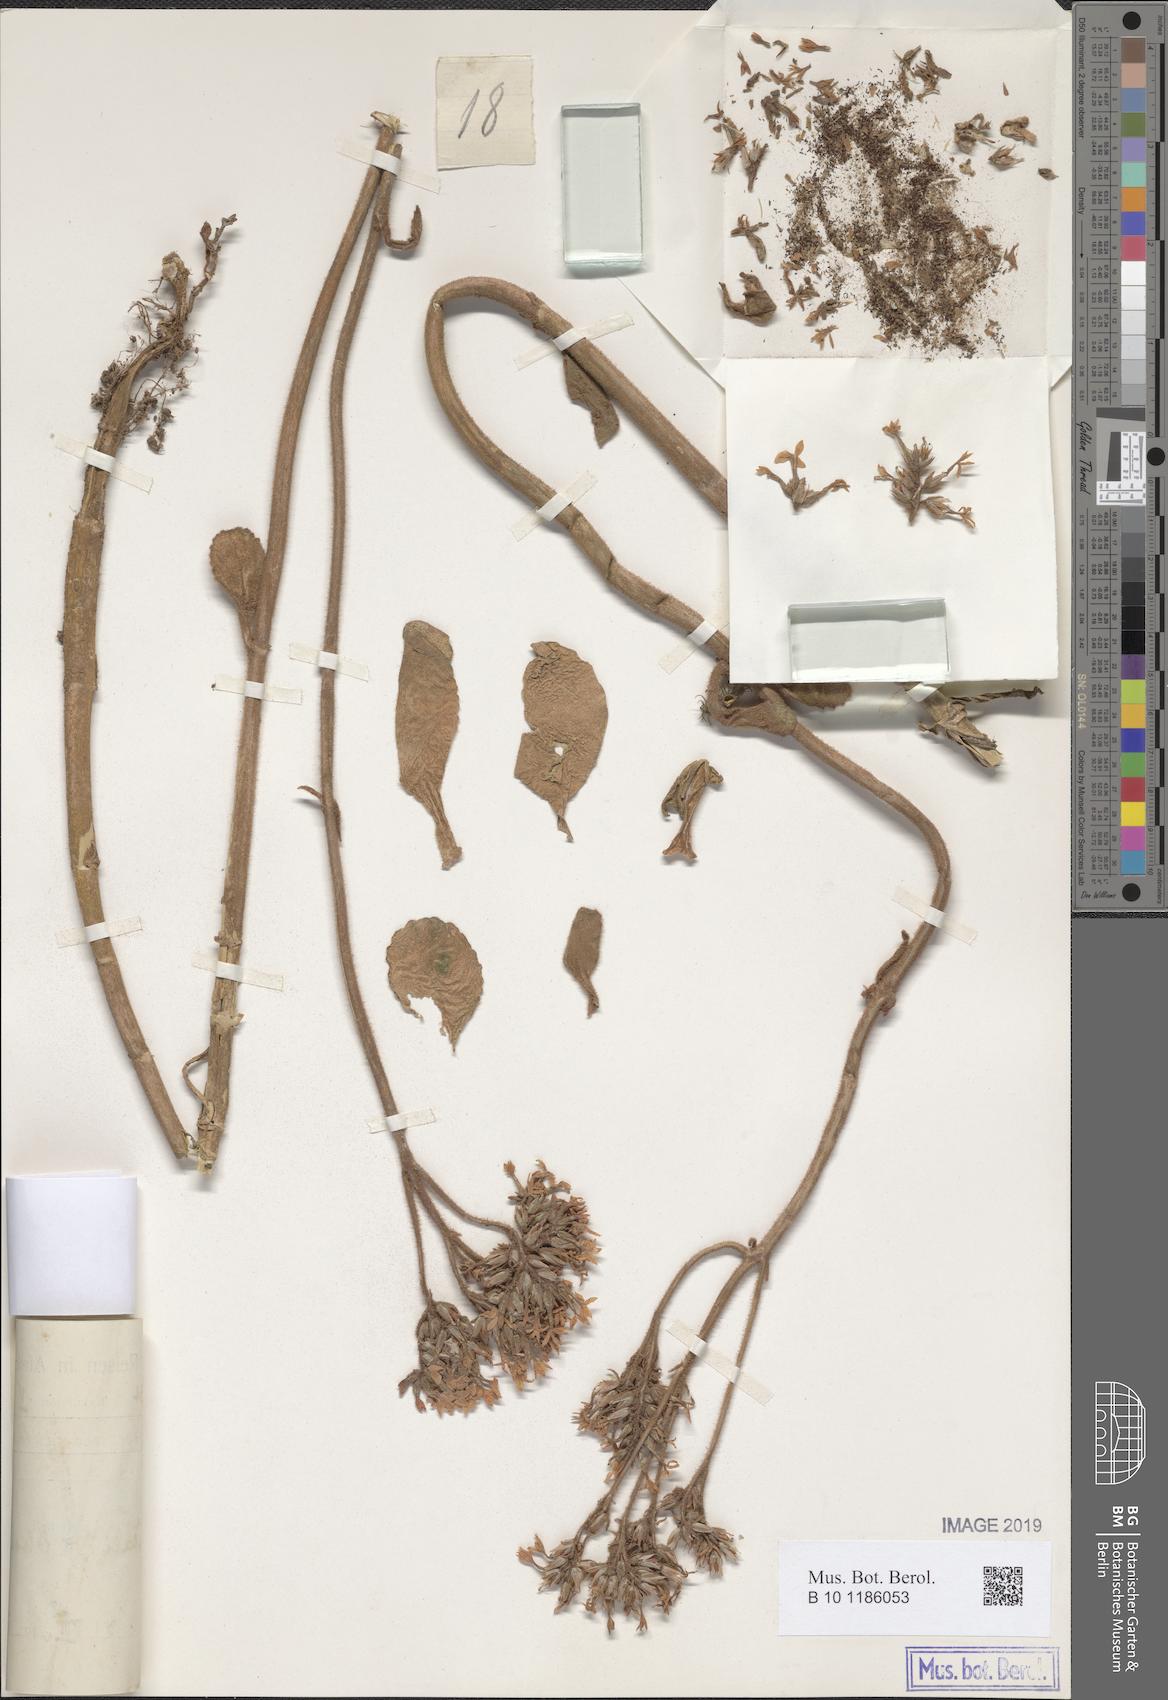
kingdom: Plantae
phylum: Tracheophyta
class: Magnoliopsida
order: Saxifragales
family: Crassulaceae
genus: Kalanchoe
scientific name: Kalanchoe lateritia
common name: Kalanchoe
